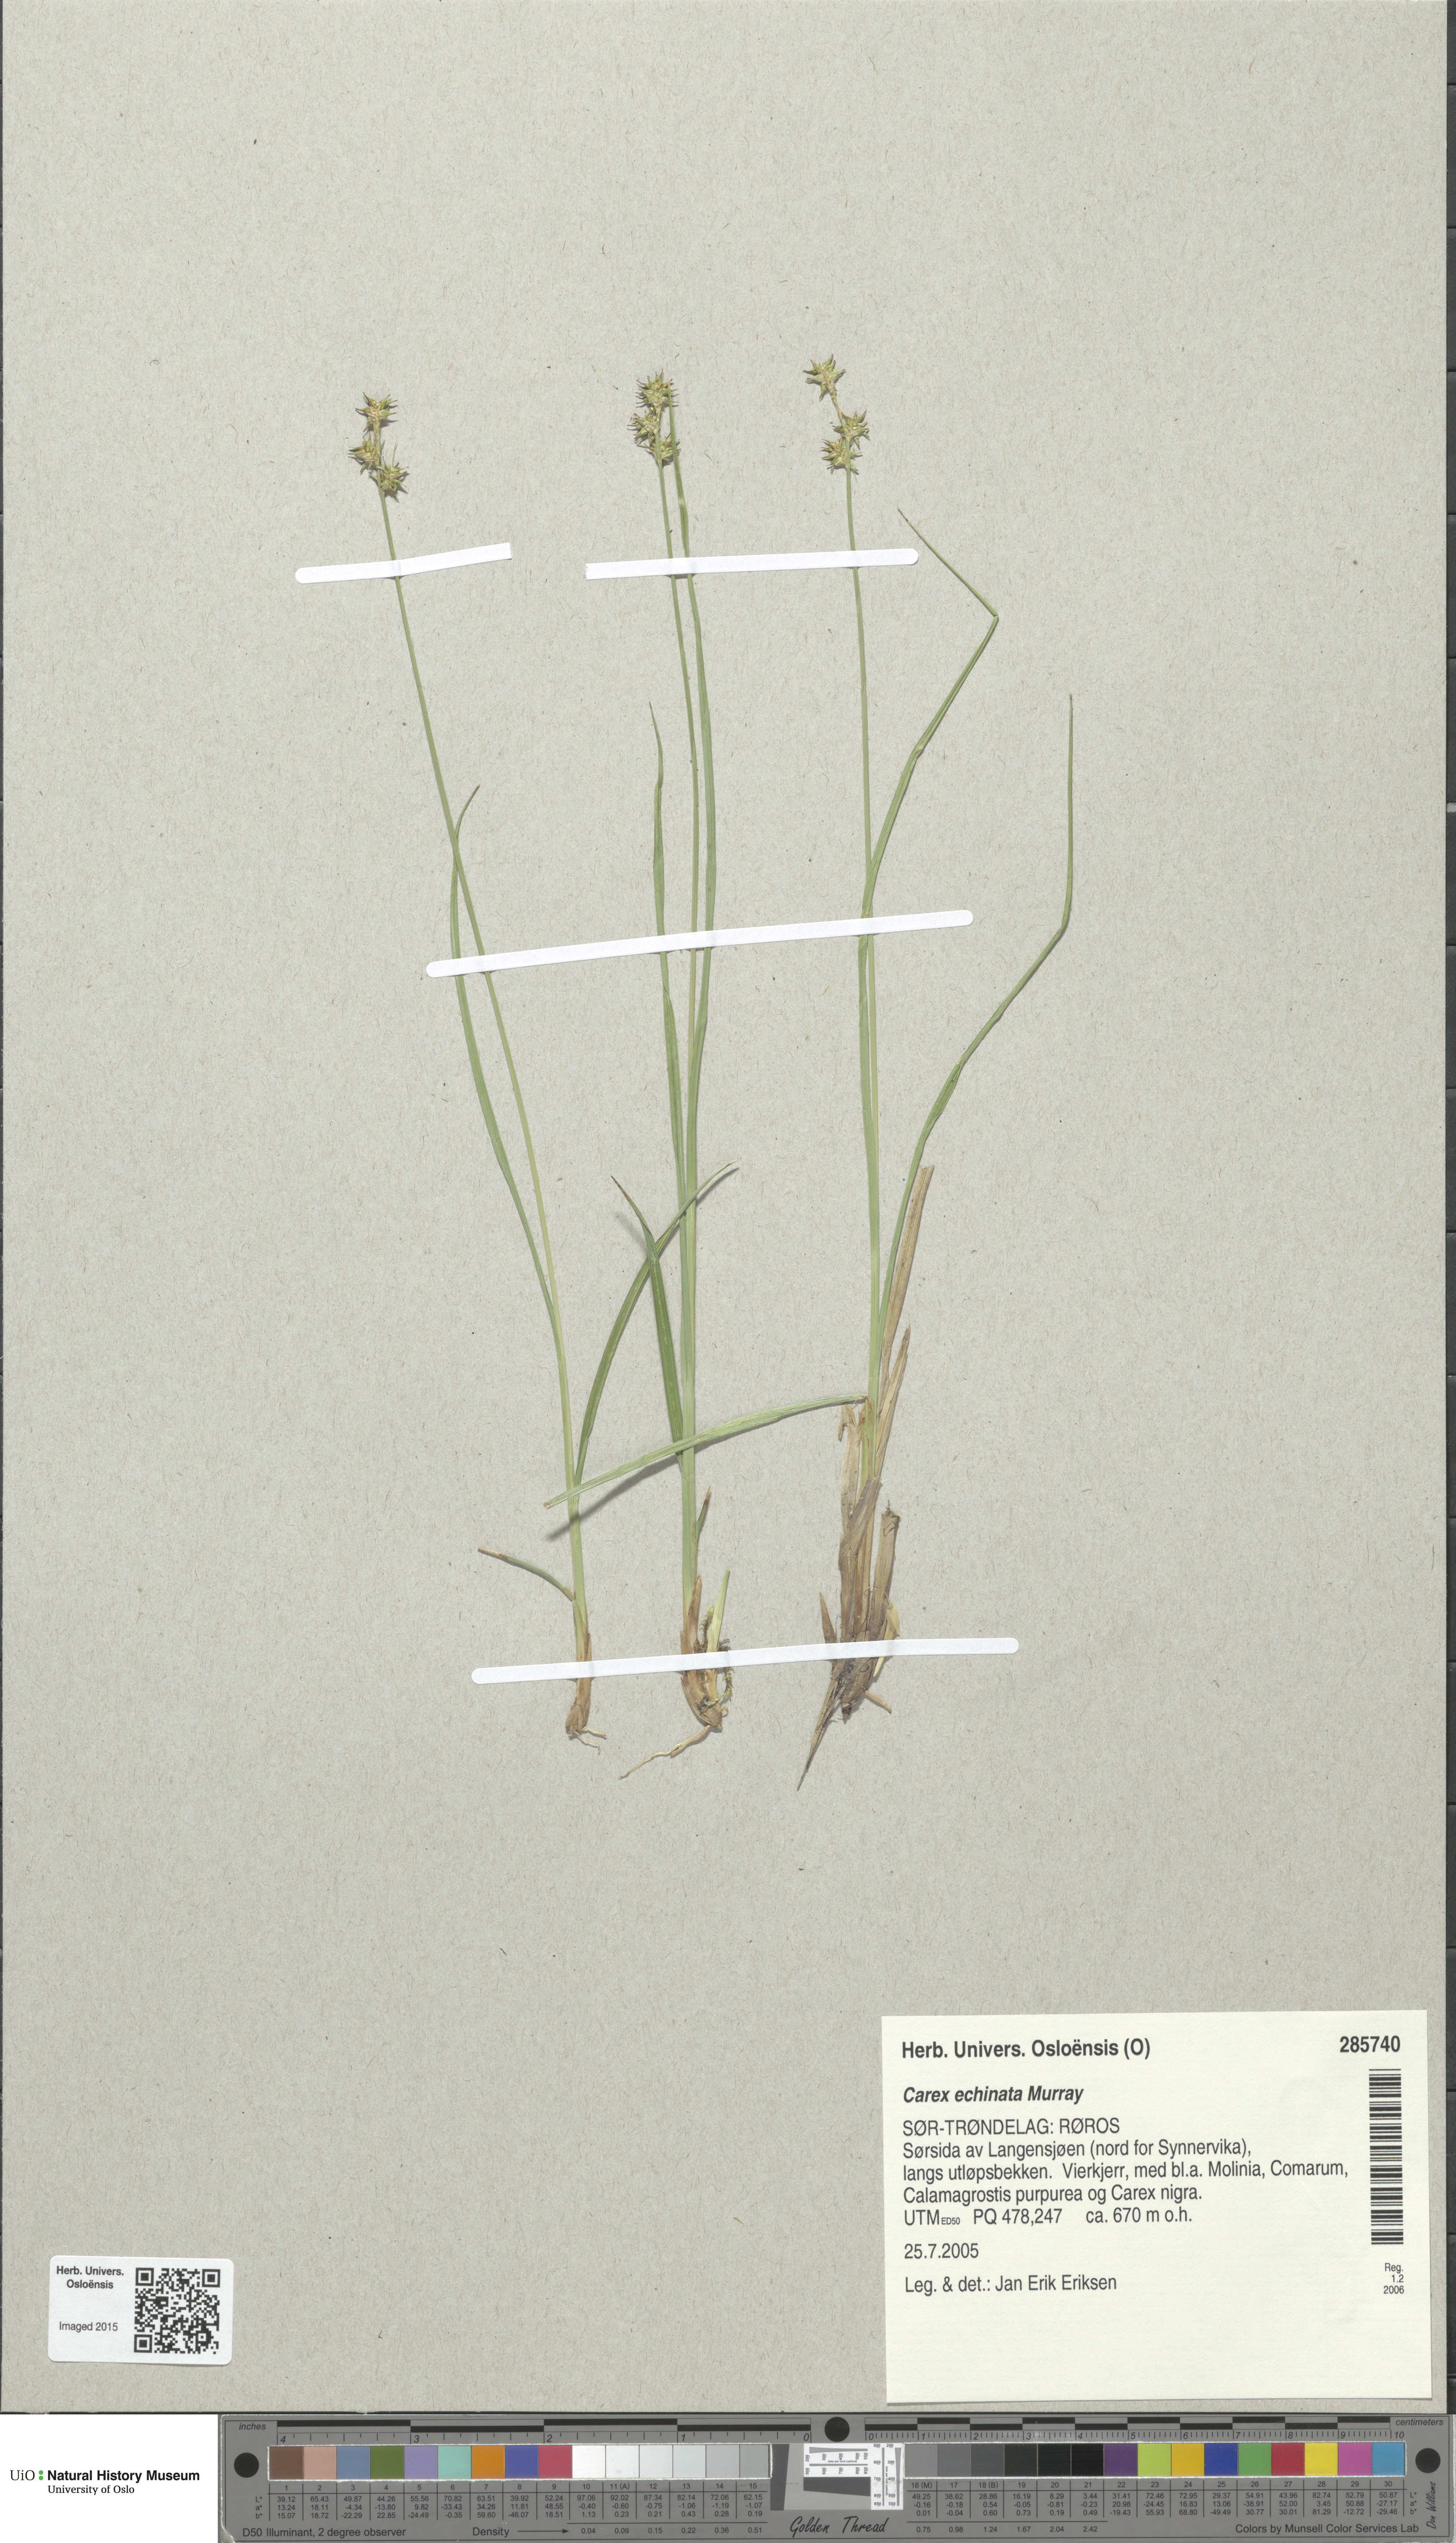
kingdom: Plantae
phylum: Tracheophyta
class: Liliopsida
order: Poales
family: Cyperaceae
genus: Carex
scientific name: Carex echinata
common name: Star sedge
